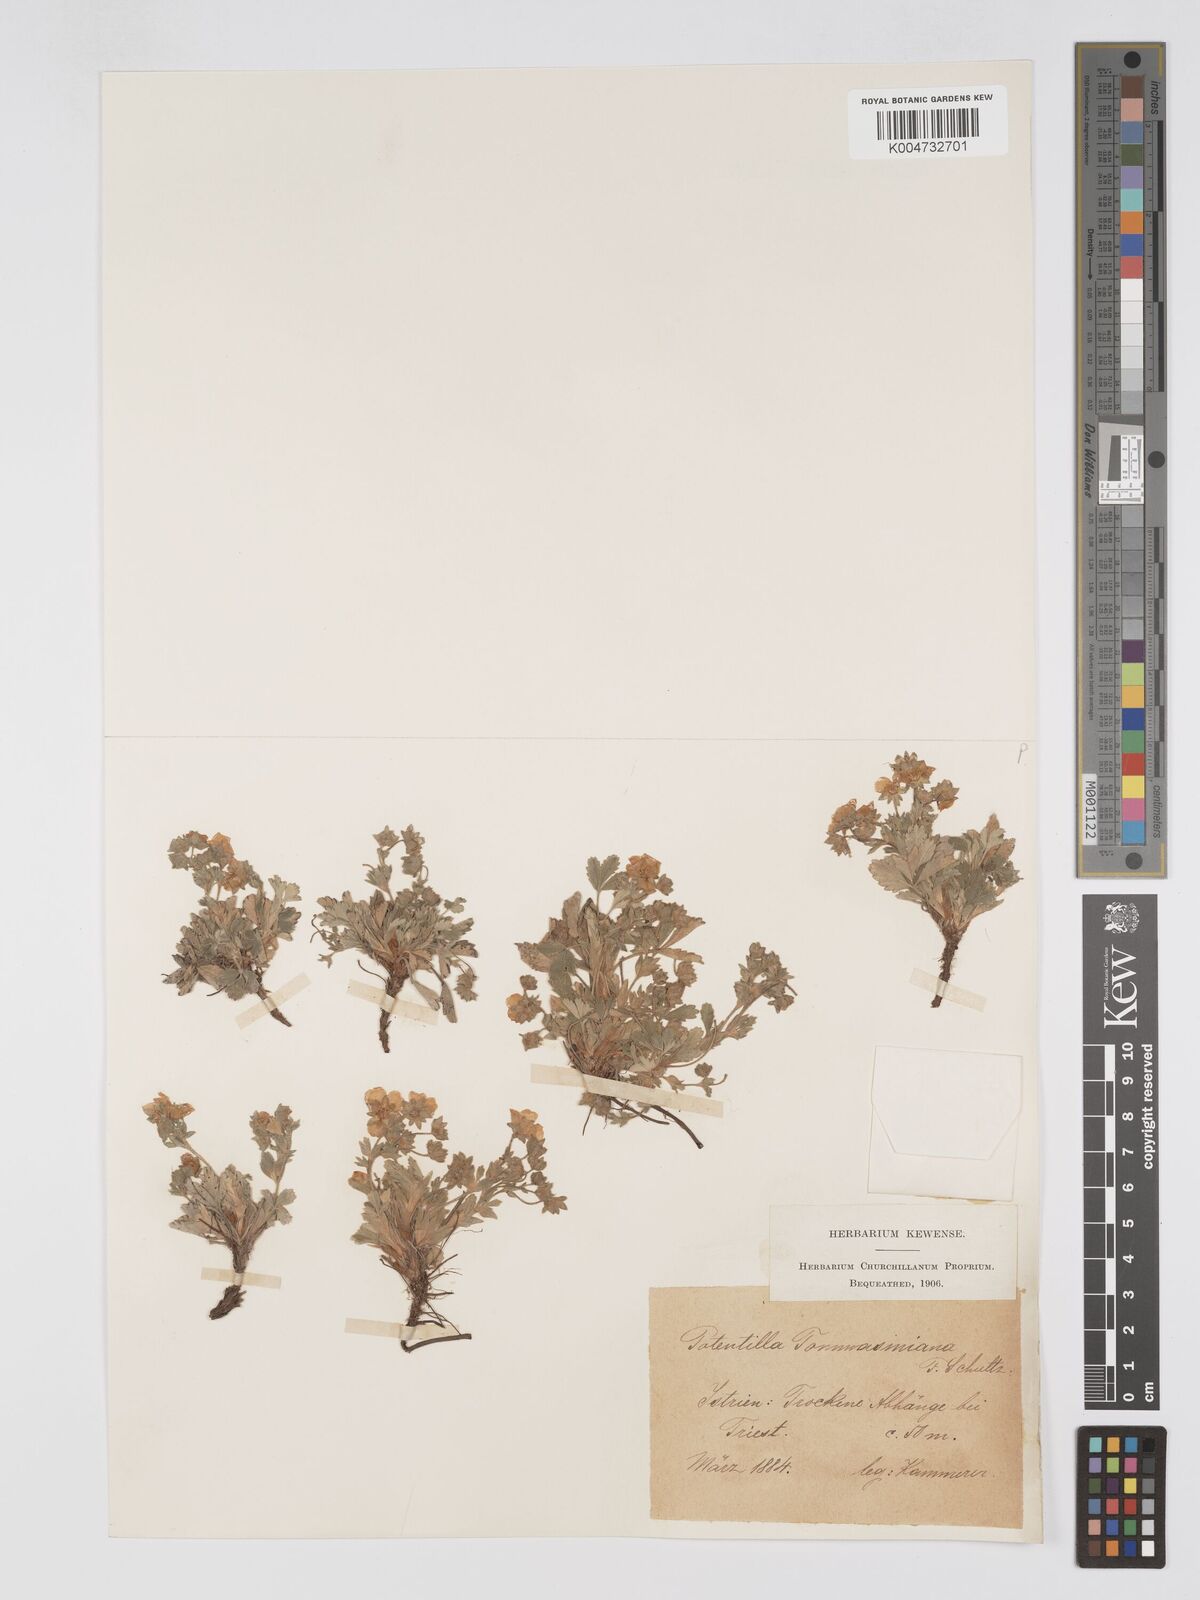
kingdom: Plantae
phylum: Tracheophyta
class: Magnoliopsida
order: Rosales
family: Rosaceae
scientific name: Rosaceae
